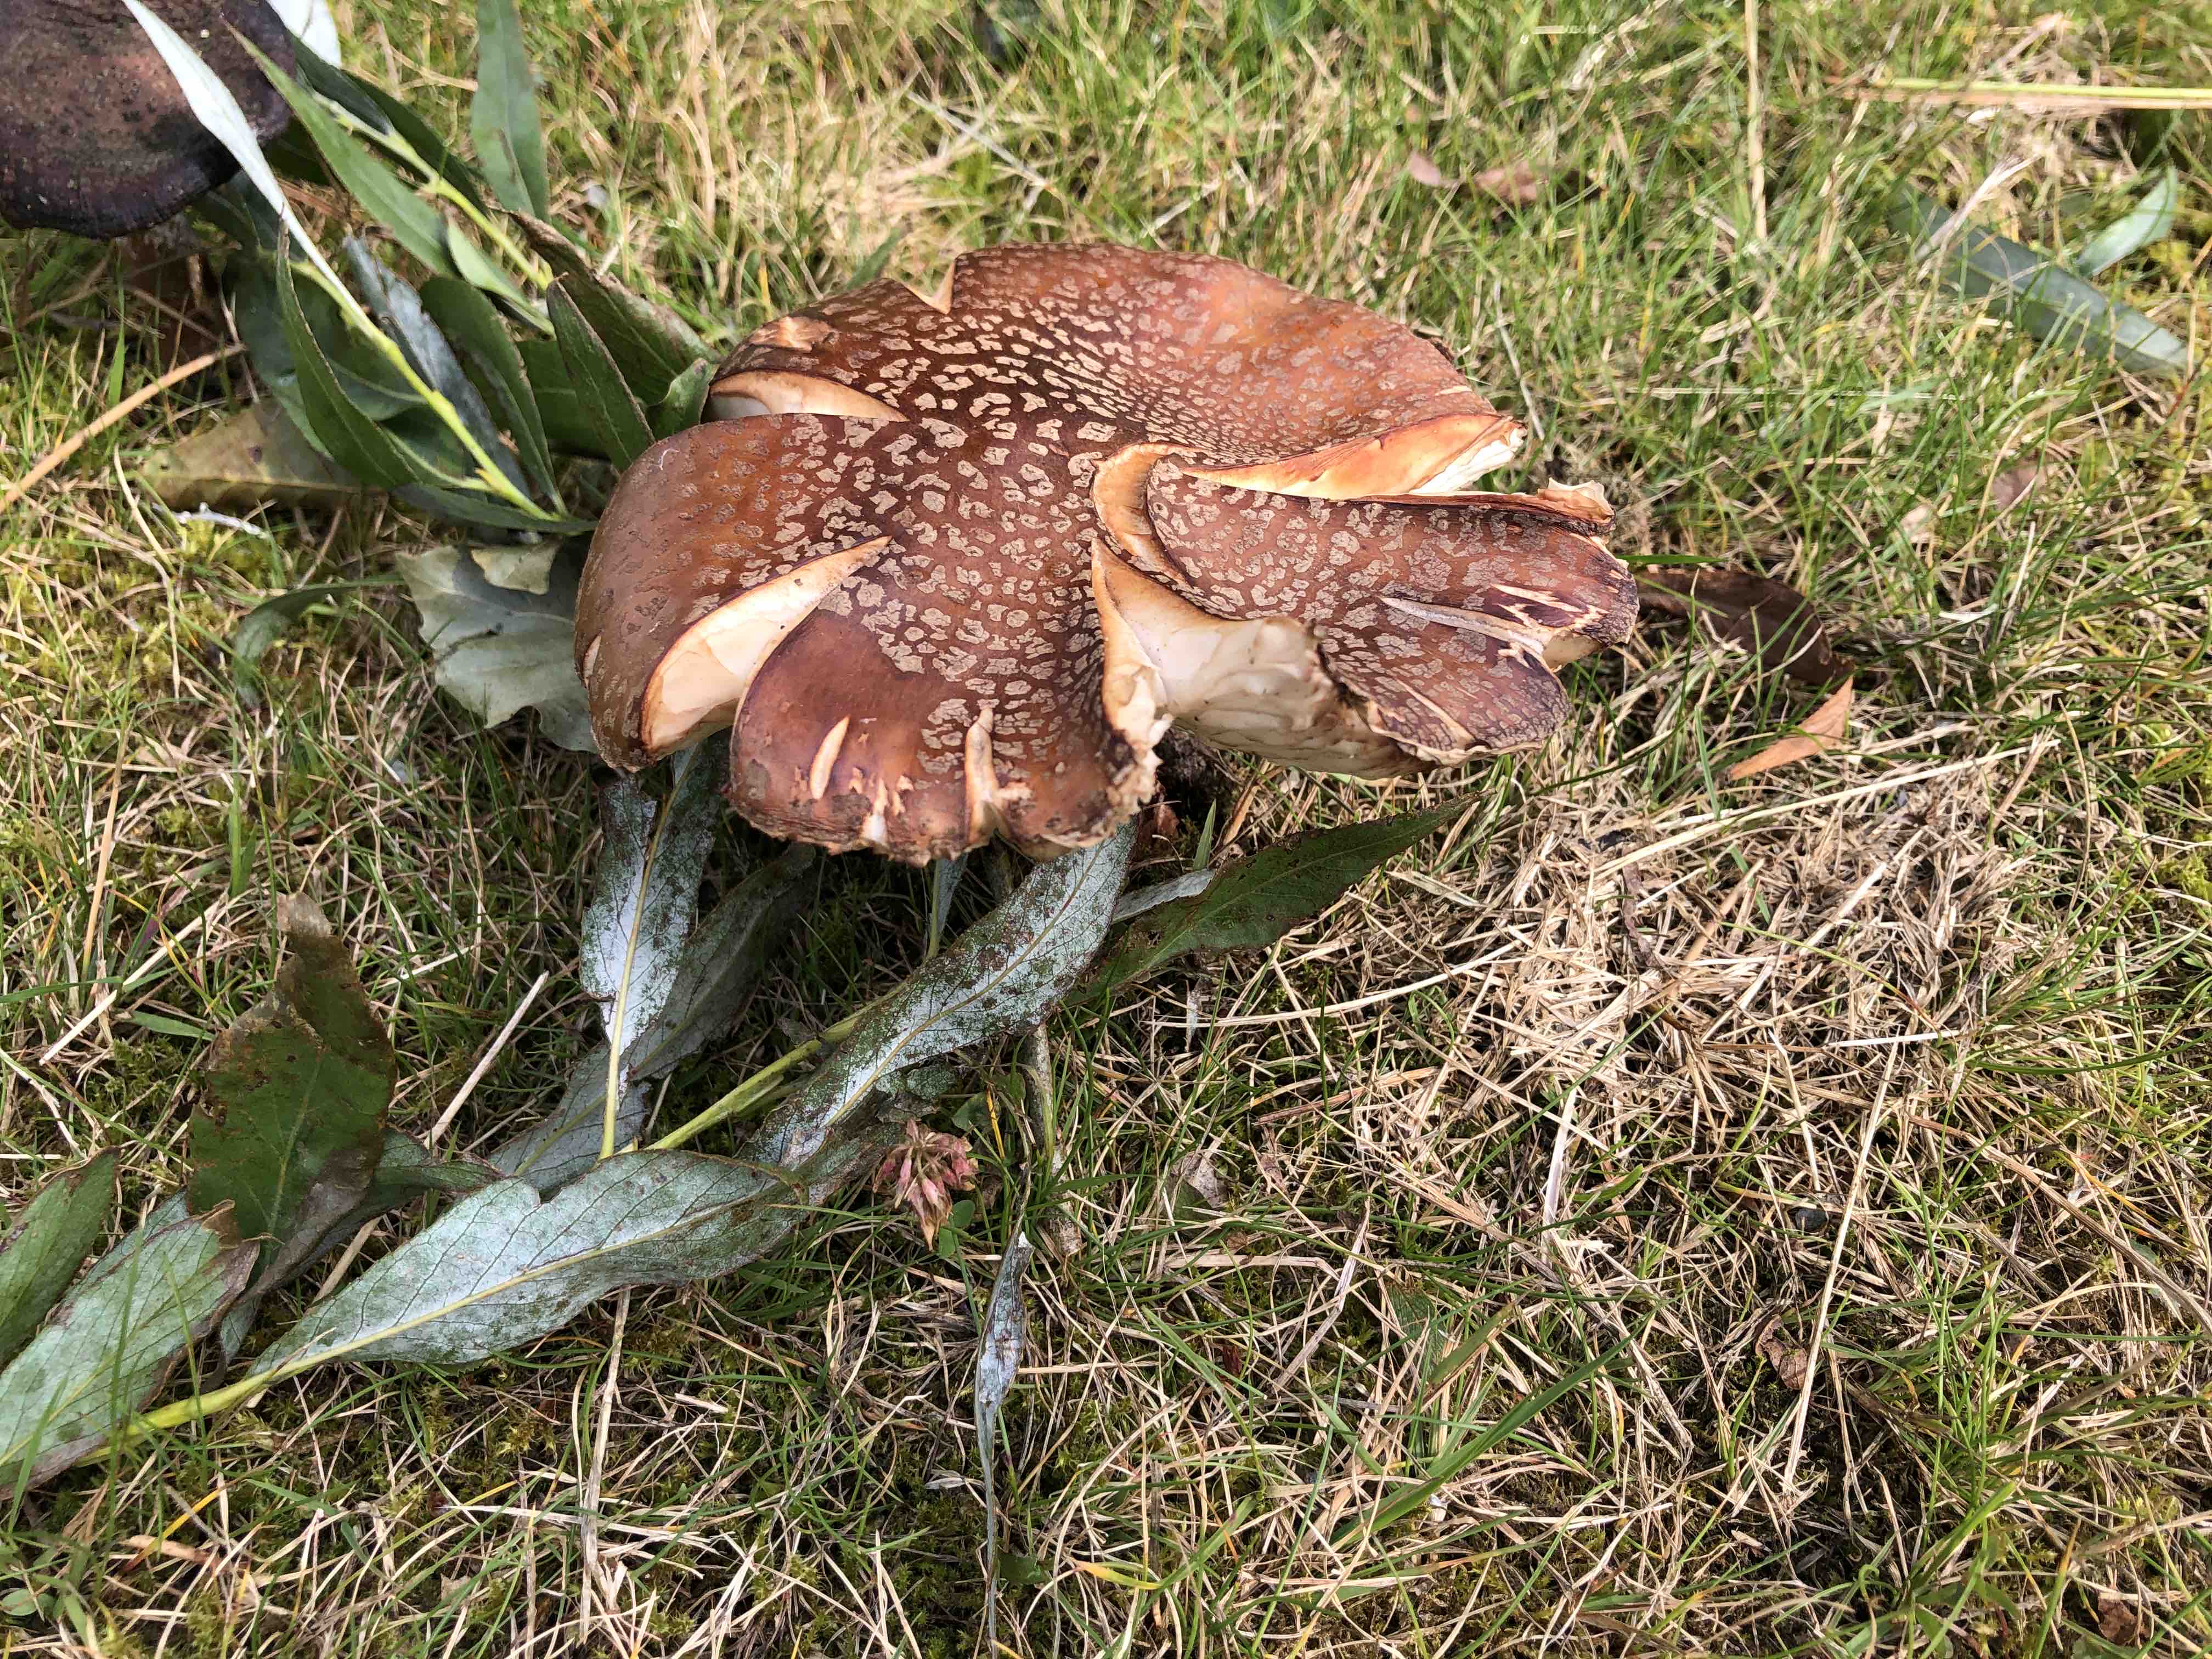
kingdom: Fungi
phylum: Basidiomycota
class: Agaricomycetes
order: Agaricales
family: Amanitaceae
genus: Amanita
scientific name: Amanita rubescens
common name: rødmende fluesvamp
